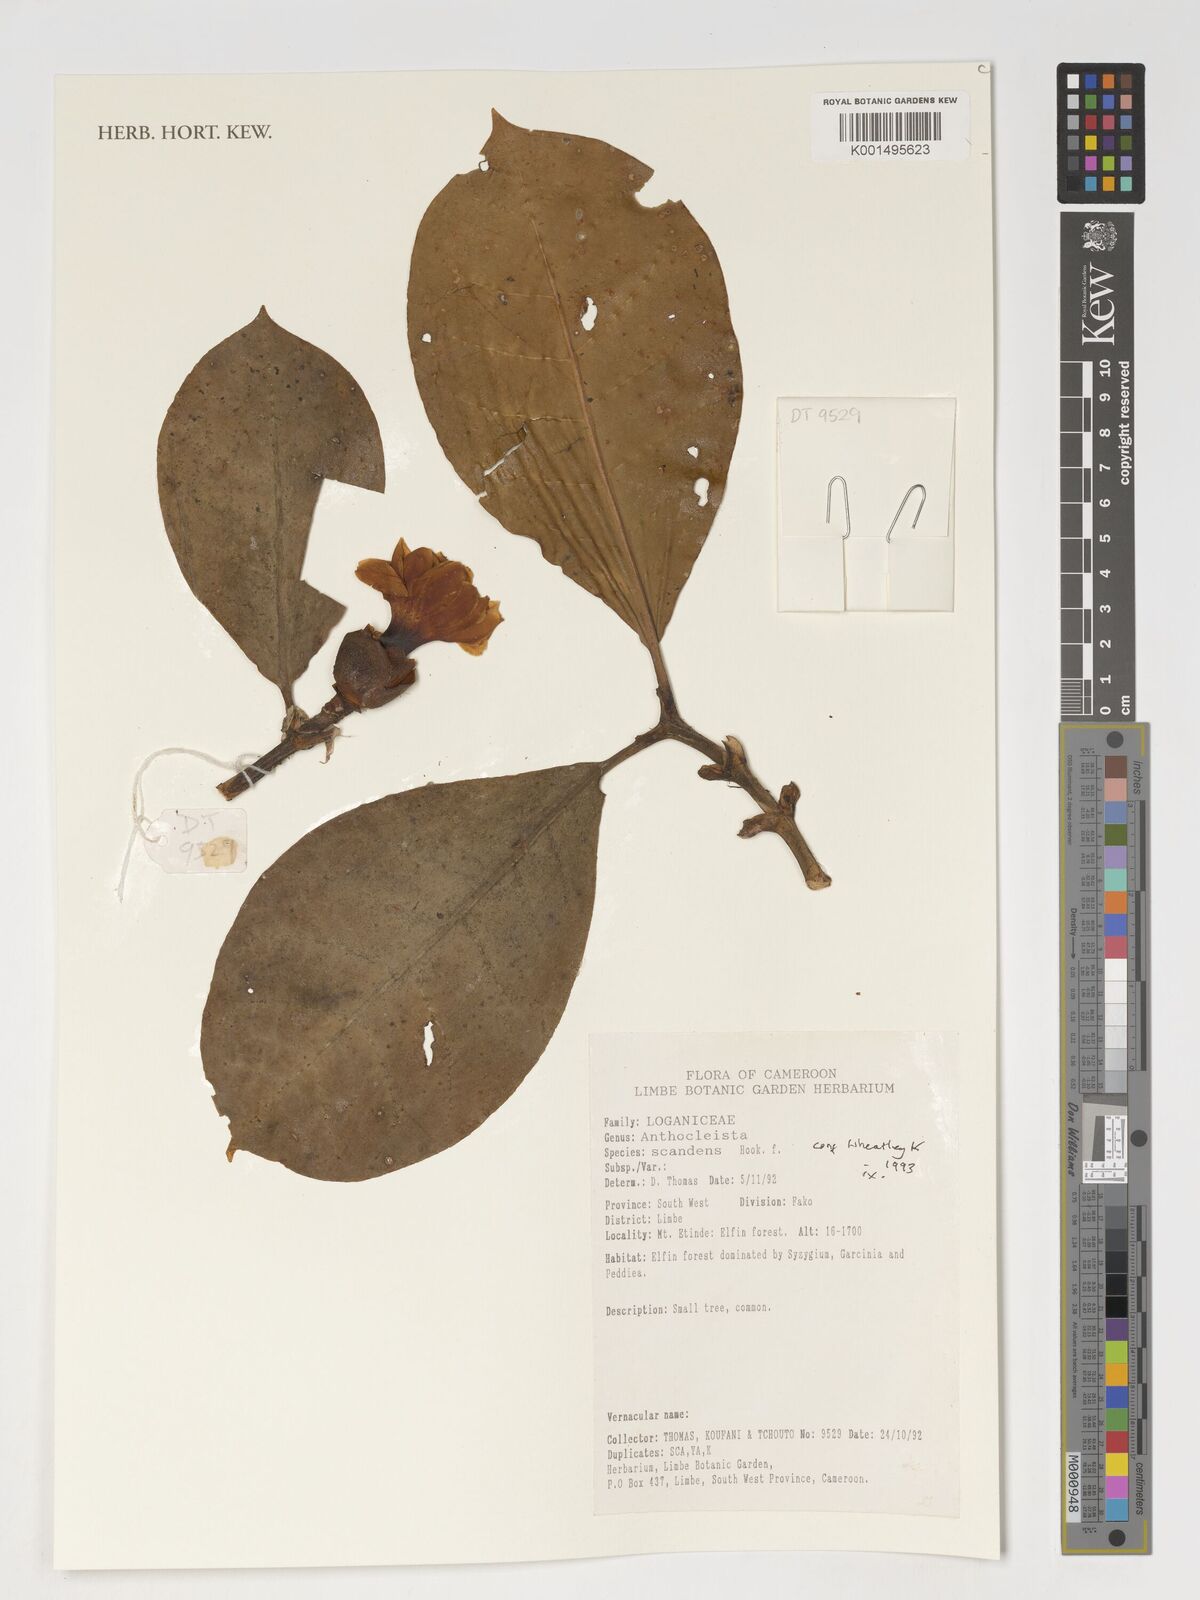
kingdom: Plantae
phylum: Tracheophyta
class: Magnoliopsida
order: Gentianales
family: Gentianaceae
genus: Anthocleista
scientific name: Anthocleista scandens
